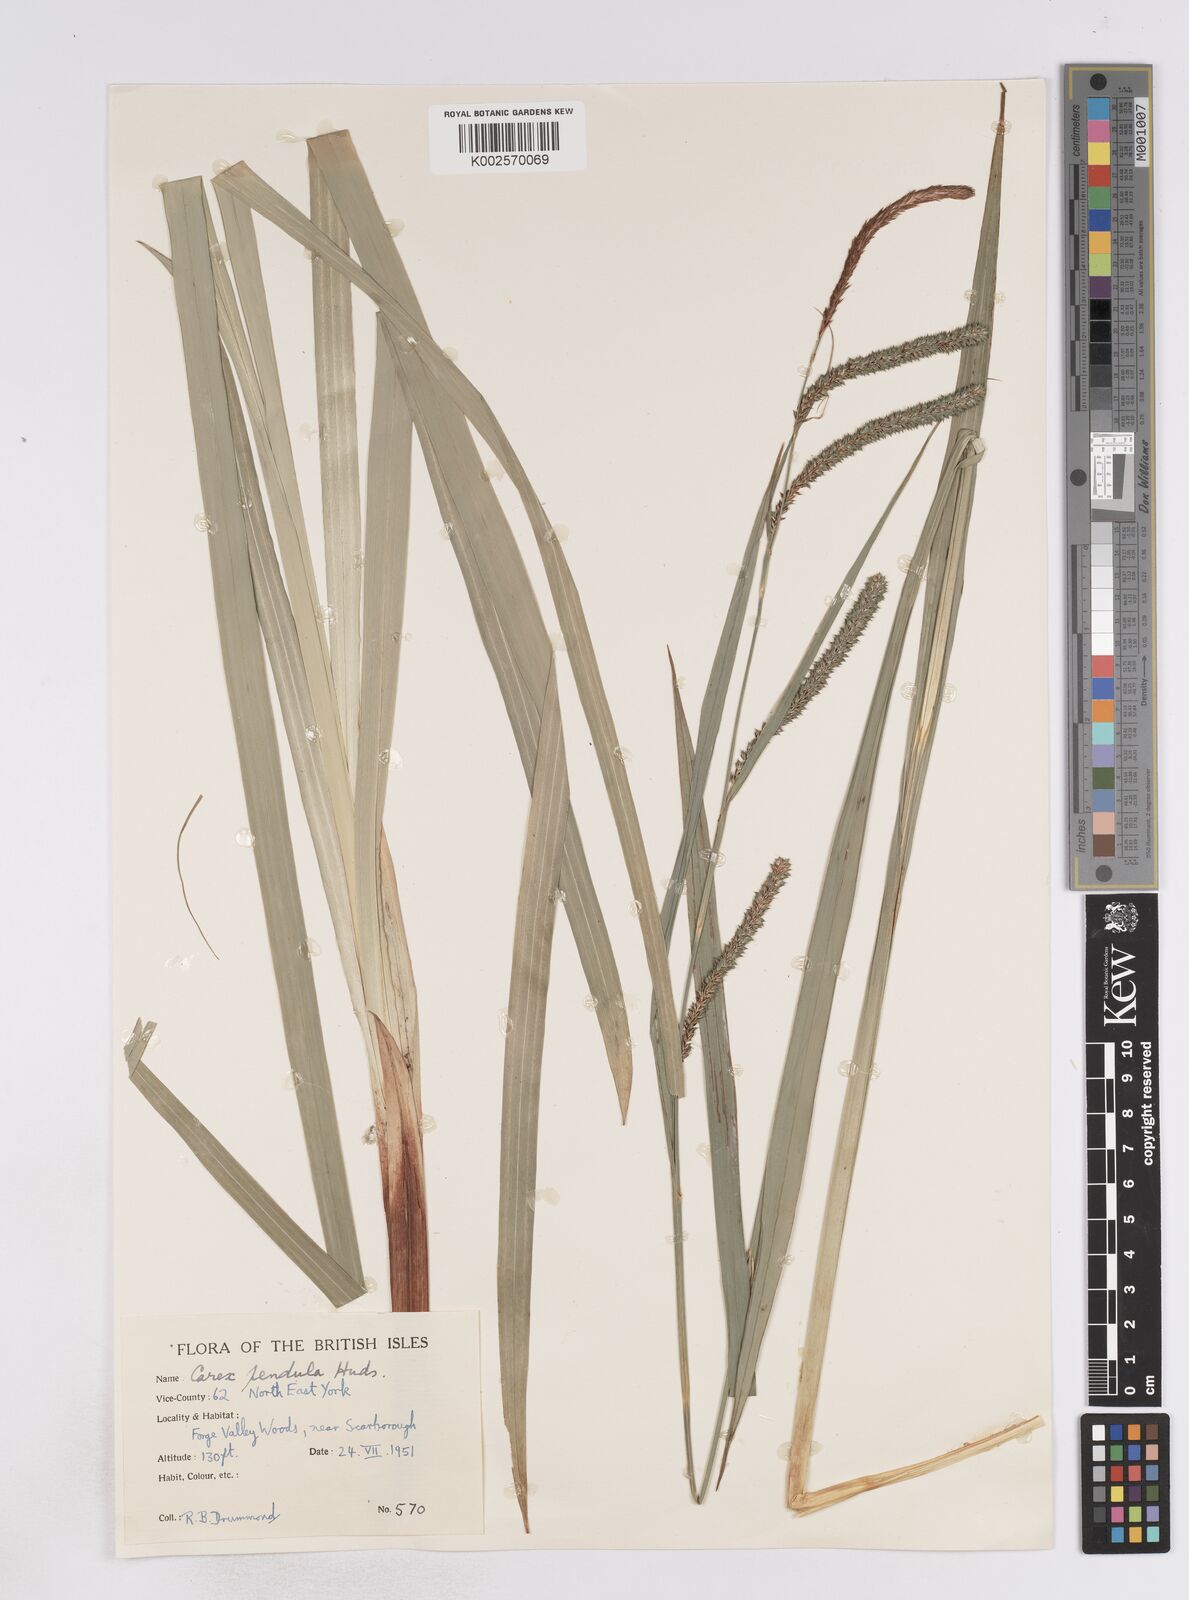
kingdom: Plantae
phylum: Tracheophyta
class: Liliopsida
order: Poales
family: Cyperaceae
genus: Carex
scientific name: Carex pendula
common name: Pendulous sedge
